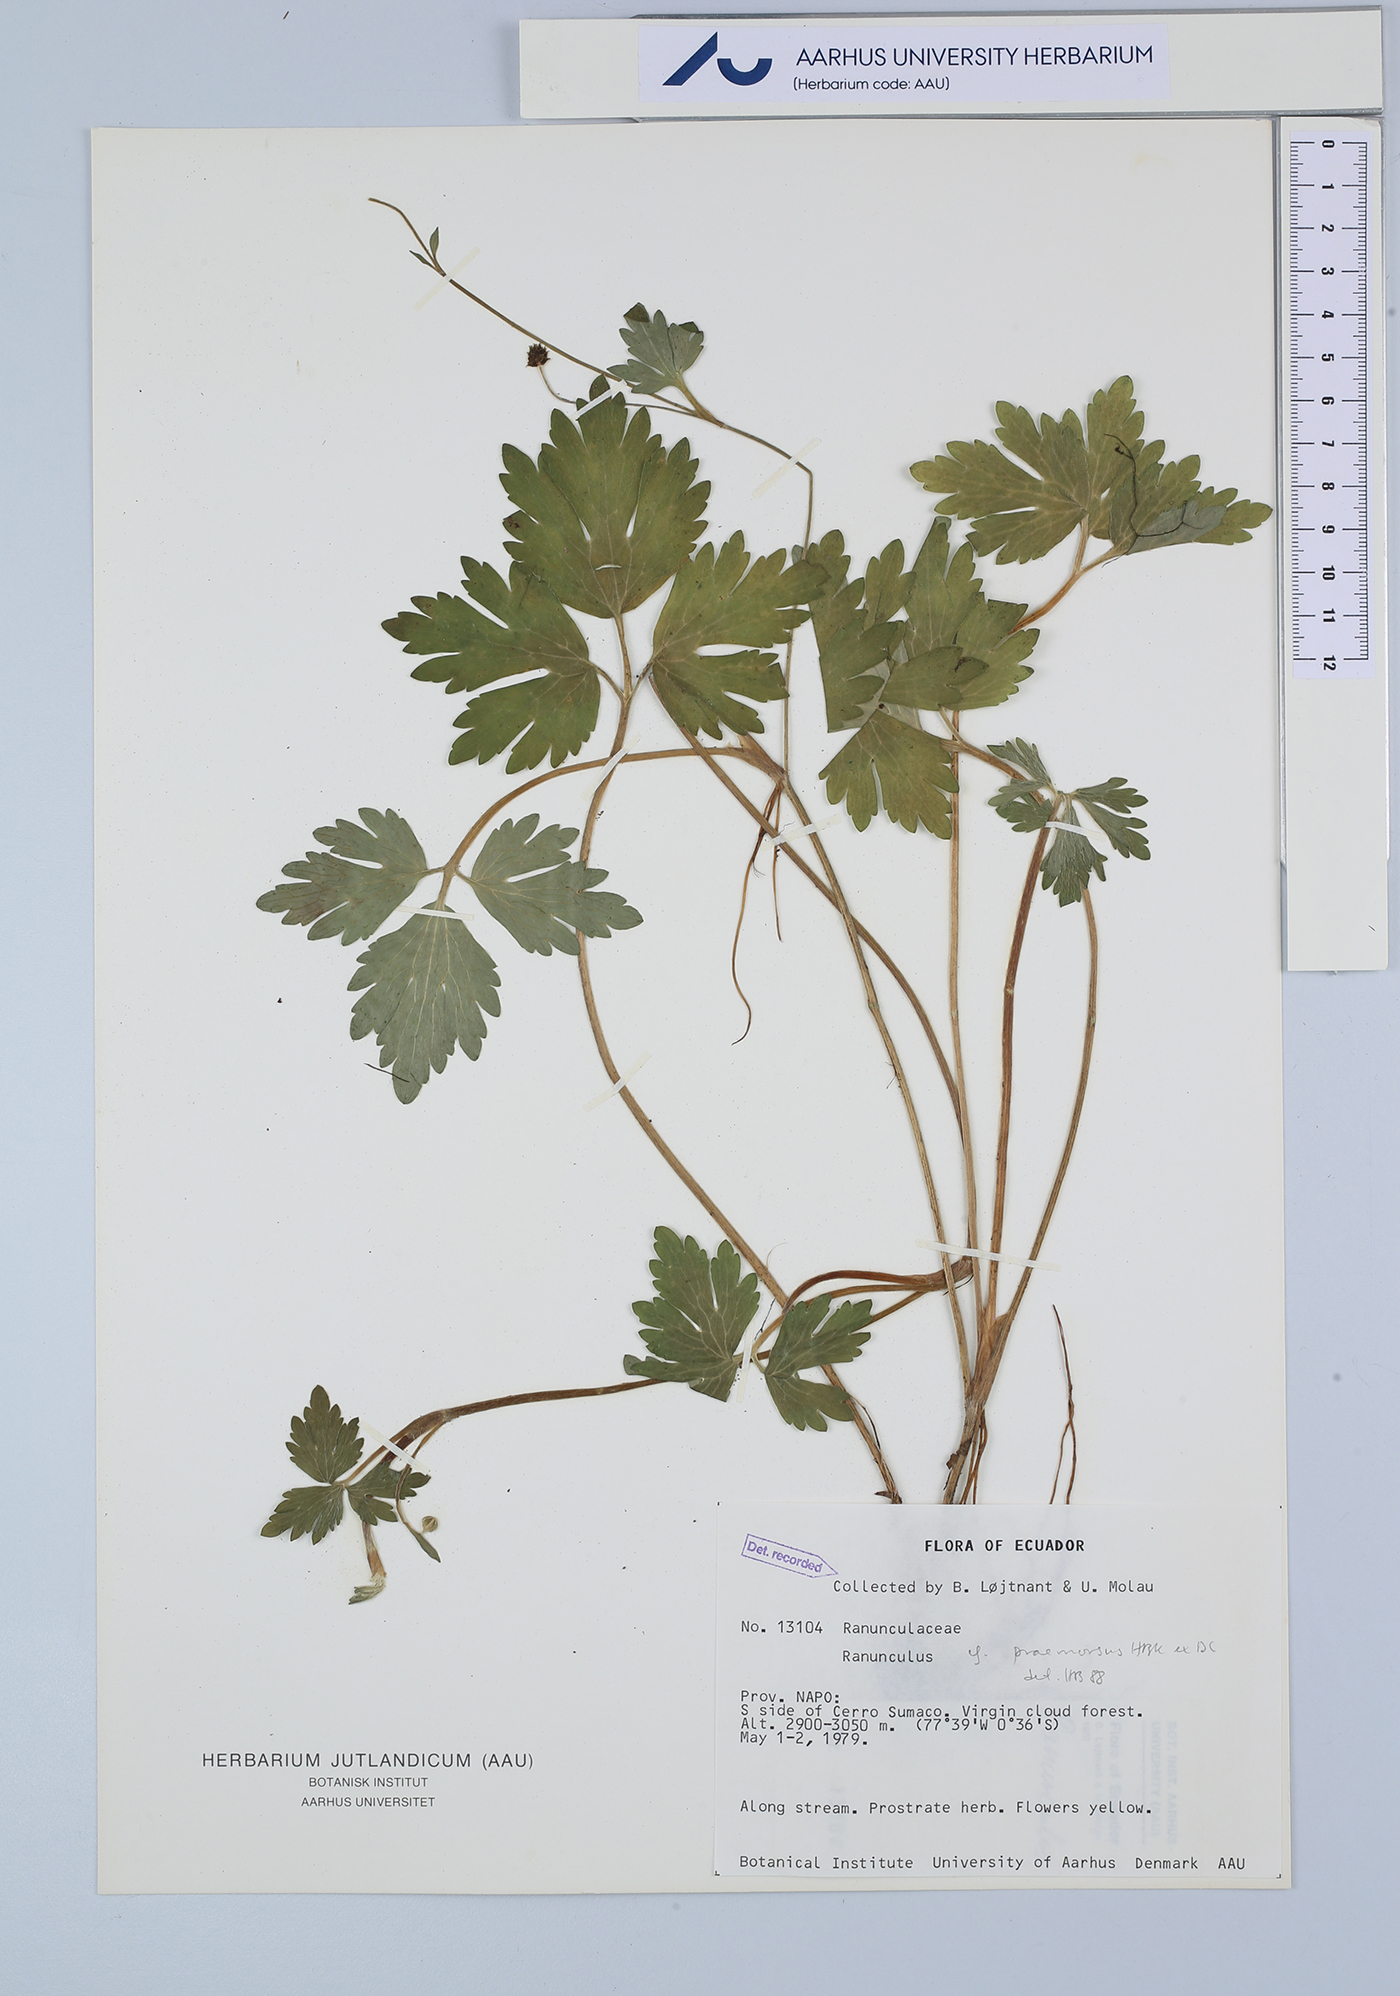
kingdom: Plantae
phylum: Tracheophyta
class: Magnoliopsida
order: Ranunculales
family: Ranunculaceae
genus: Ranunculus
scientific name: Ranunculus praemorsus
